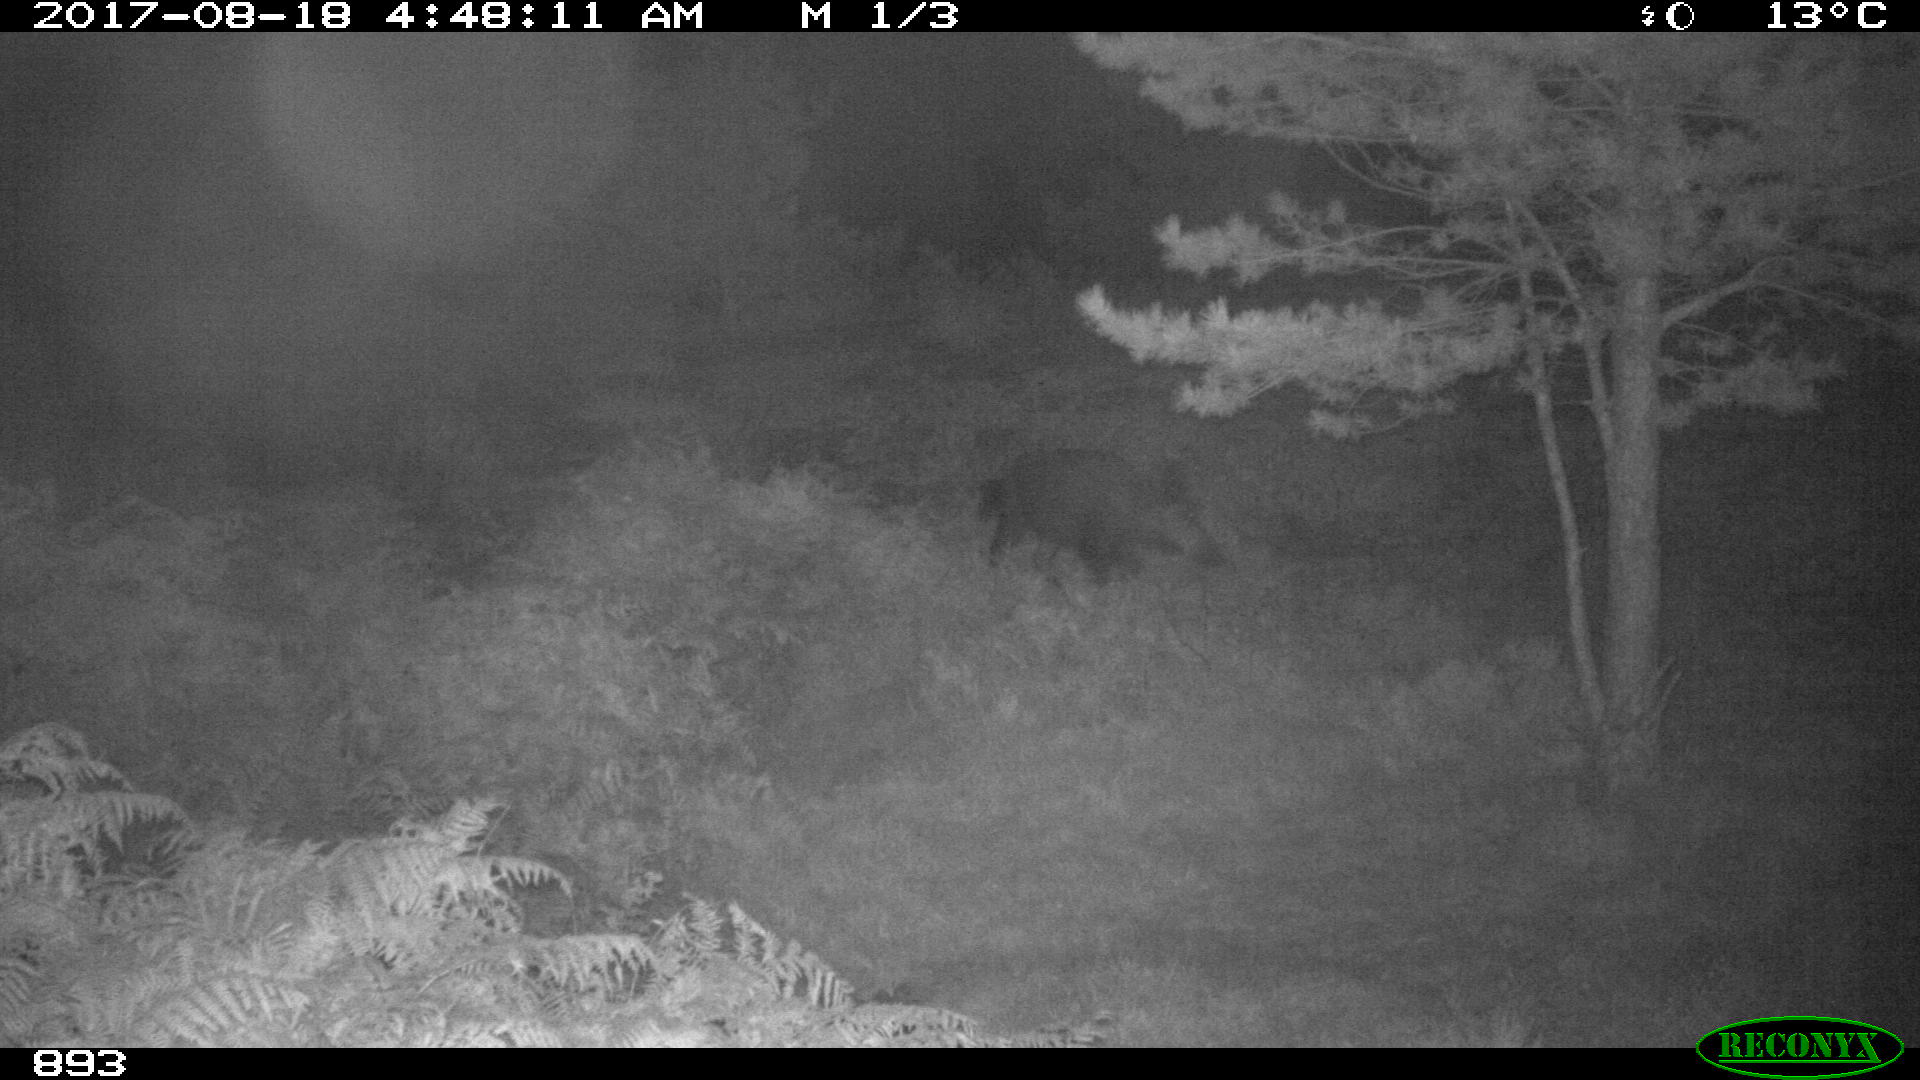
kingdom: Animalia
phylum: Chordata
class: Mammalia
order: Artiodactyla
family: Suidae
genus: Sus
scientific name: Sus scrofa
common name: Wild boar
